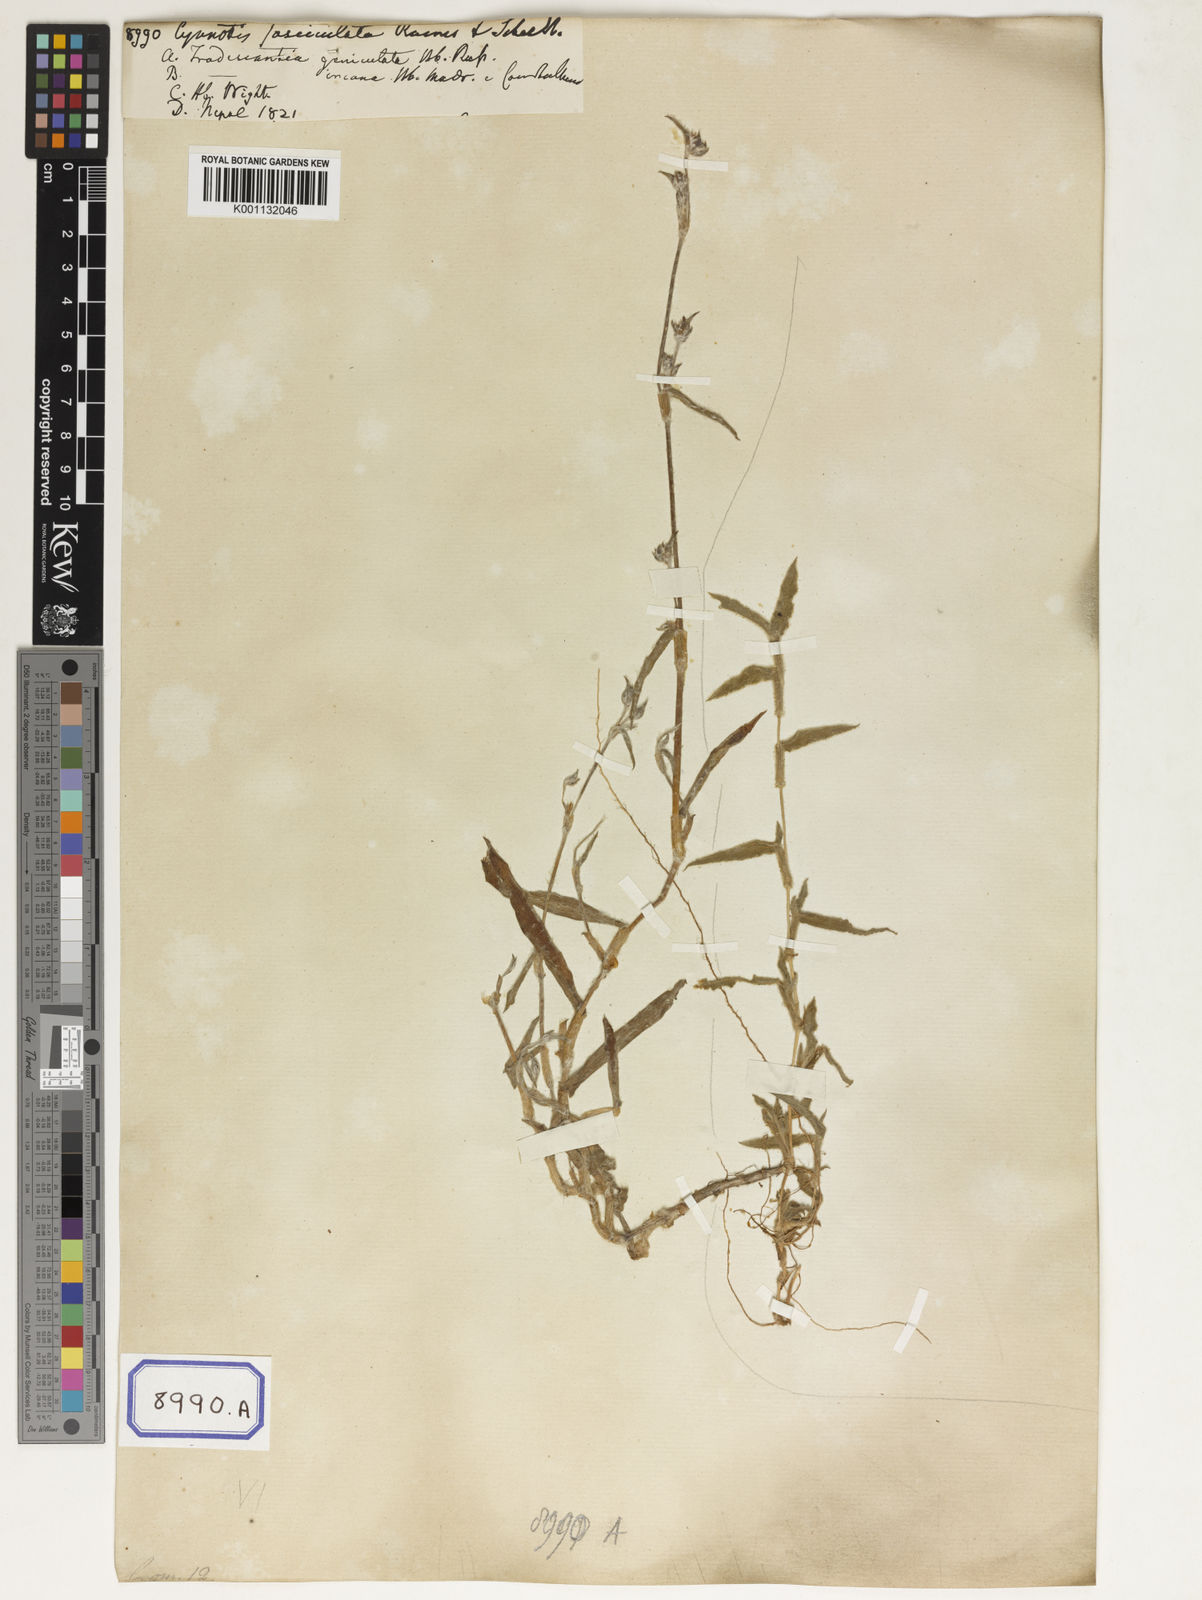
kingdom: Plantae
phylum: Tracheophyta
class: Liliopsida
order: Commelinales
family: Commelinaceae
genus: Cyanotis
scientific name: Cyanotis
